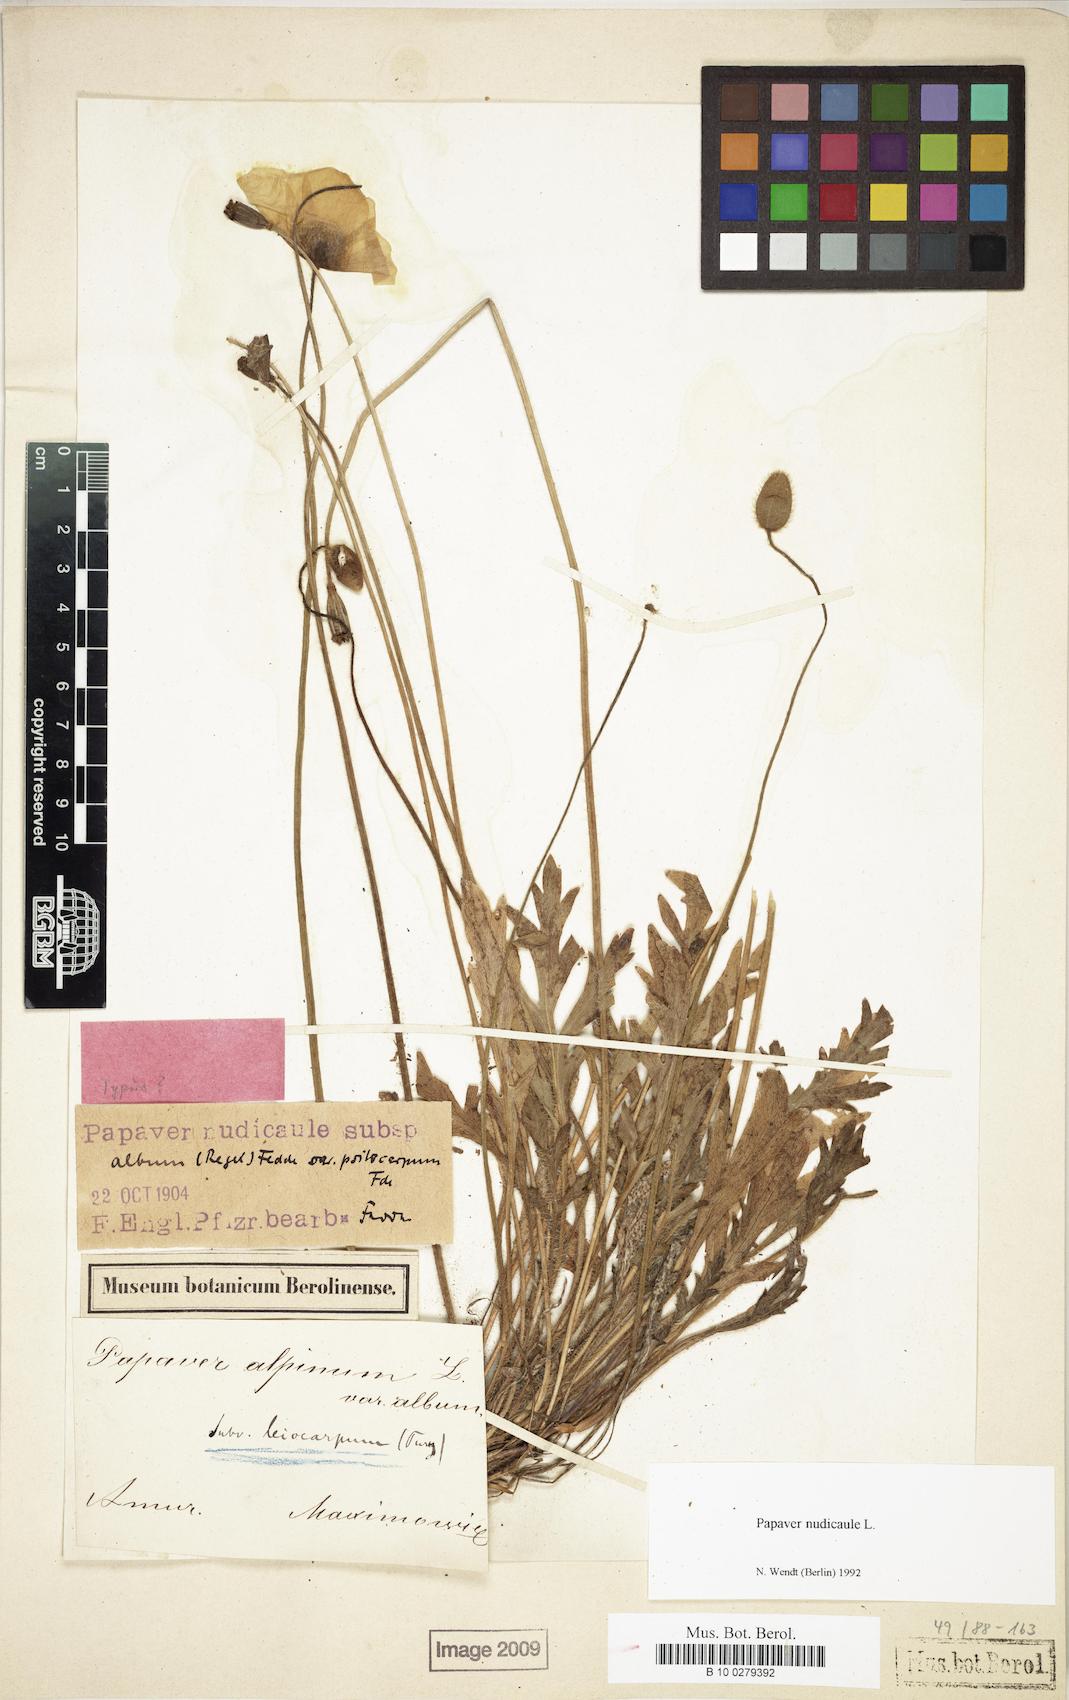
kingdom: Plantae
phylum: Tracheophyta
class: Magnoliopsida
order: Ranunculales
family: Papaveraceae
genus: Papaver
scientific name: Papaver nudicaule
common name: Arctic poppy
